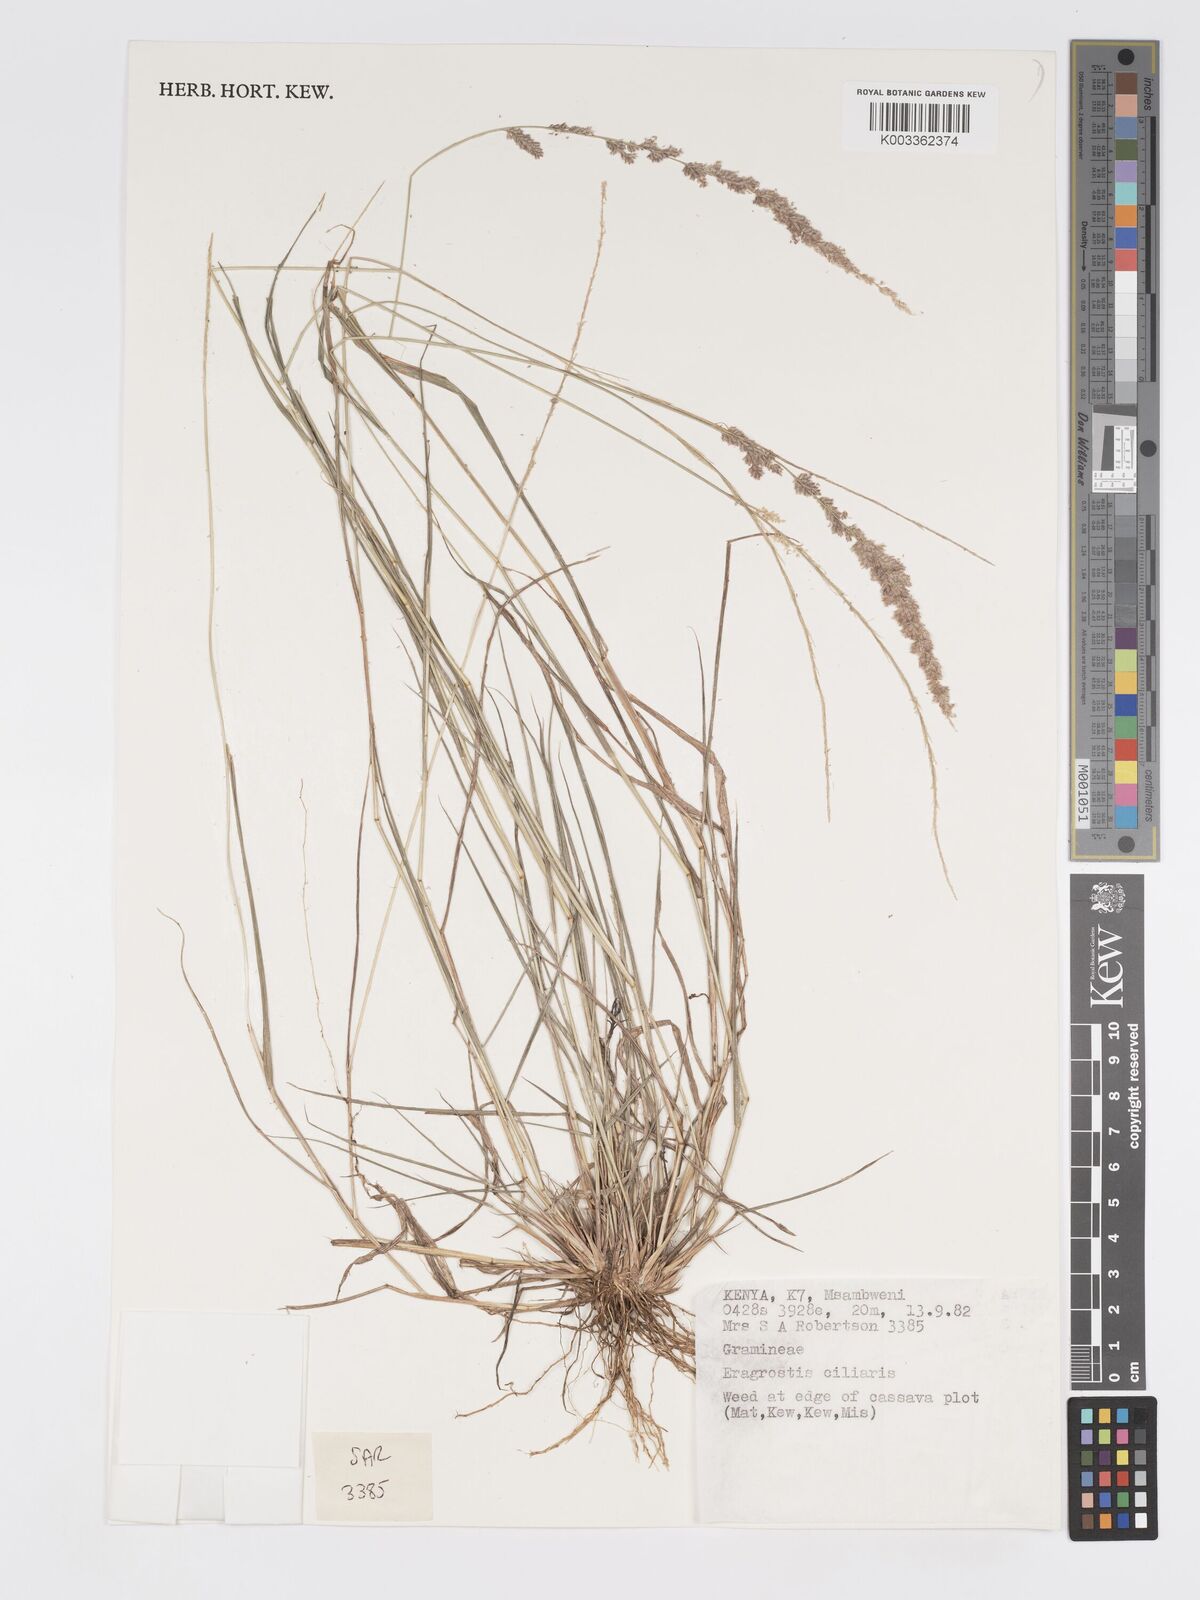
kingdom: Plantae
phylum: Tracheophyta
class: Liliopsida
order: Poales
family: Poaceae
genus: Eragrostis
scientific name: Eragrostis ciliaris
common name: Gophertail lovegrass
